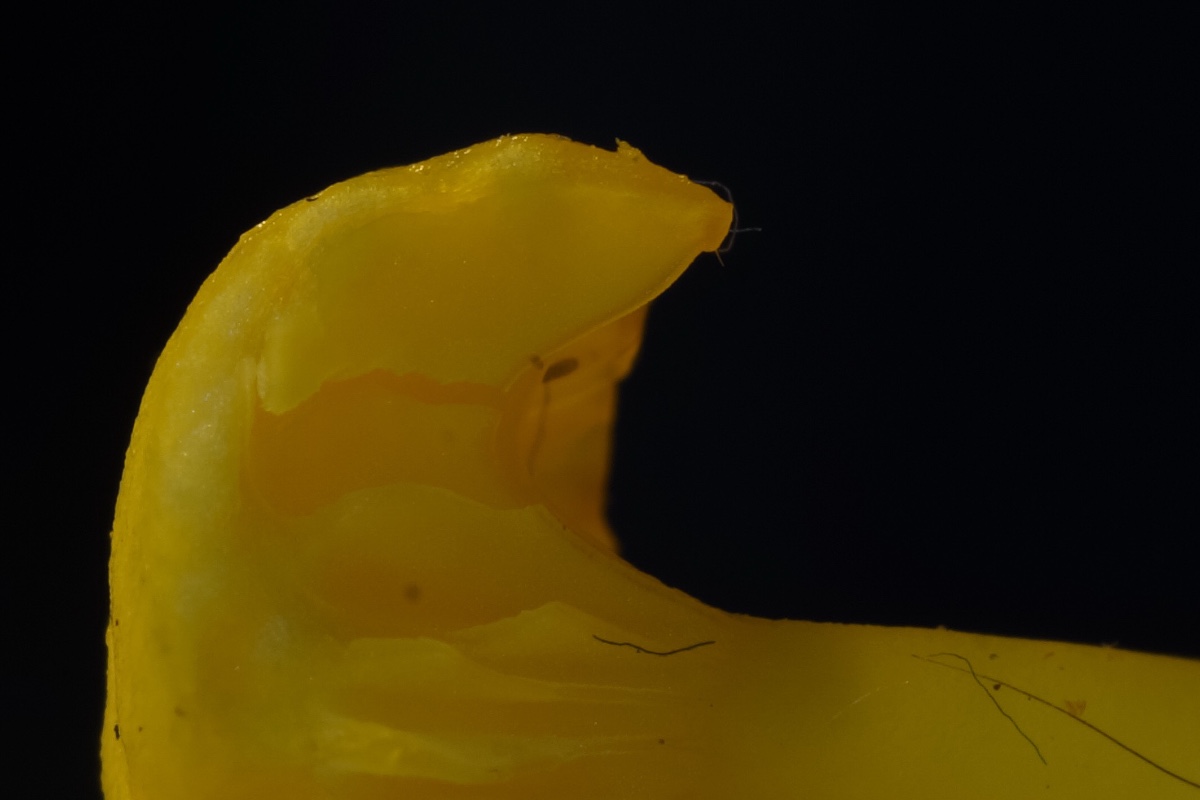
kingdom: Fungi
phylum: Basidiomycota
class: Agaricomycetes
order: Agaricales
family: Hygrophoraceae
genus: Gloioxanthomyces
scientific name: Gloioxanthomyces vitellinus
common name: kromgul vokshat
